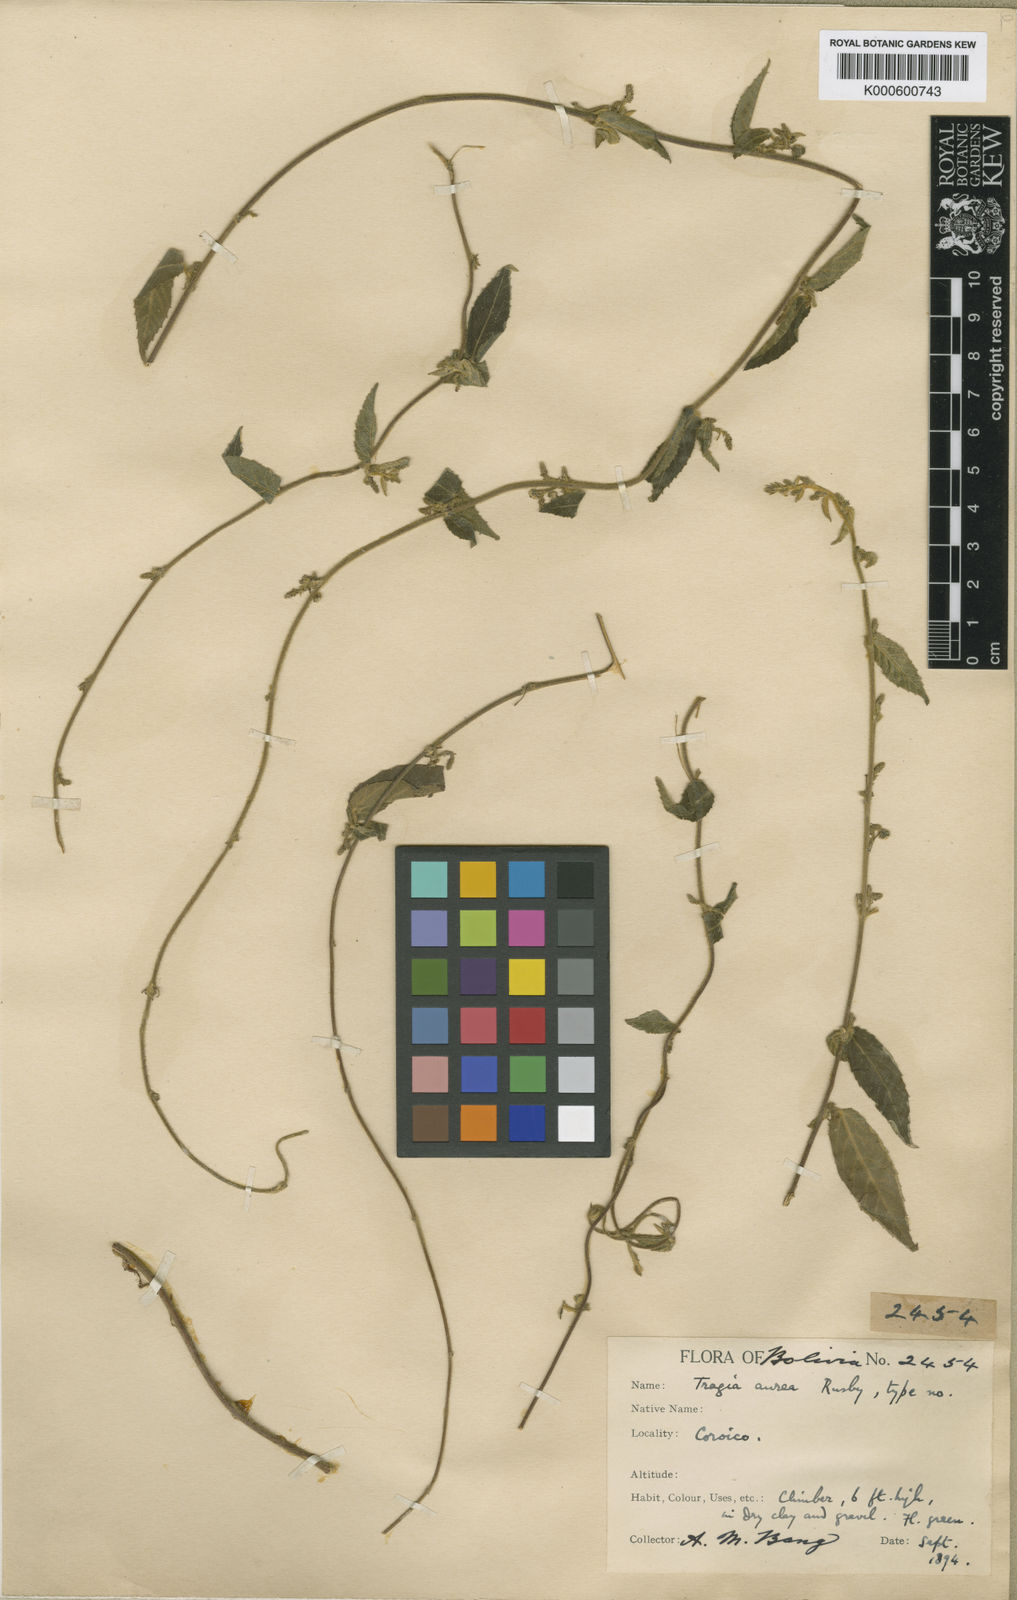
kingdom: Plantae
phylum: Tracheophyta
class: Magnoliopsida
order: Malpighiales
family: Euphorbiaceae
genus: Tragia
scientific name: Tragia aurea
